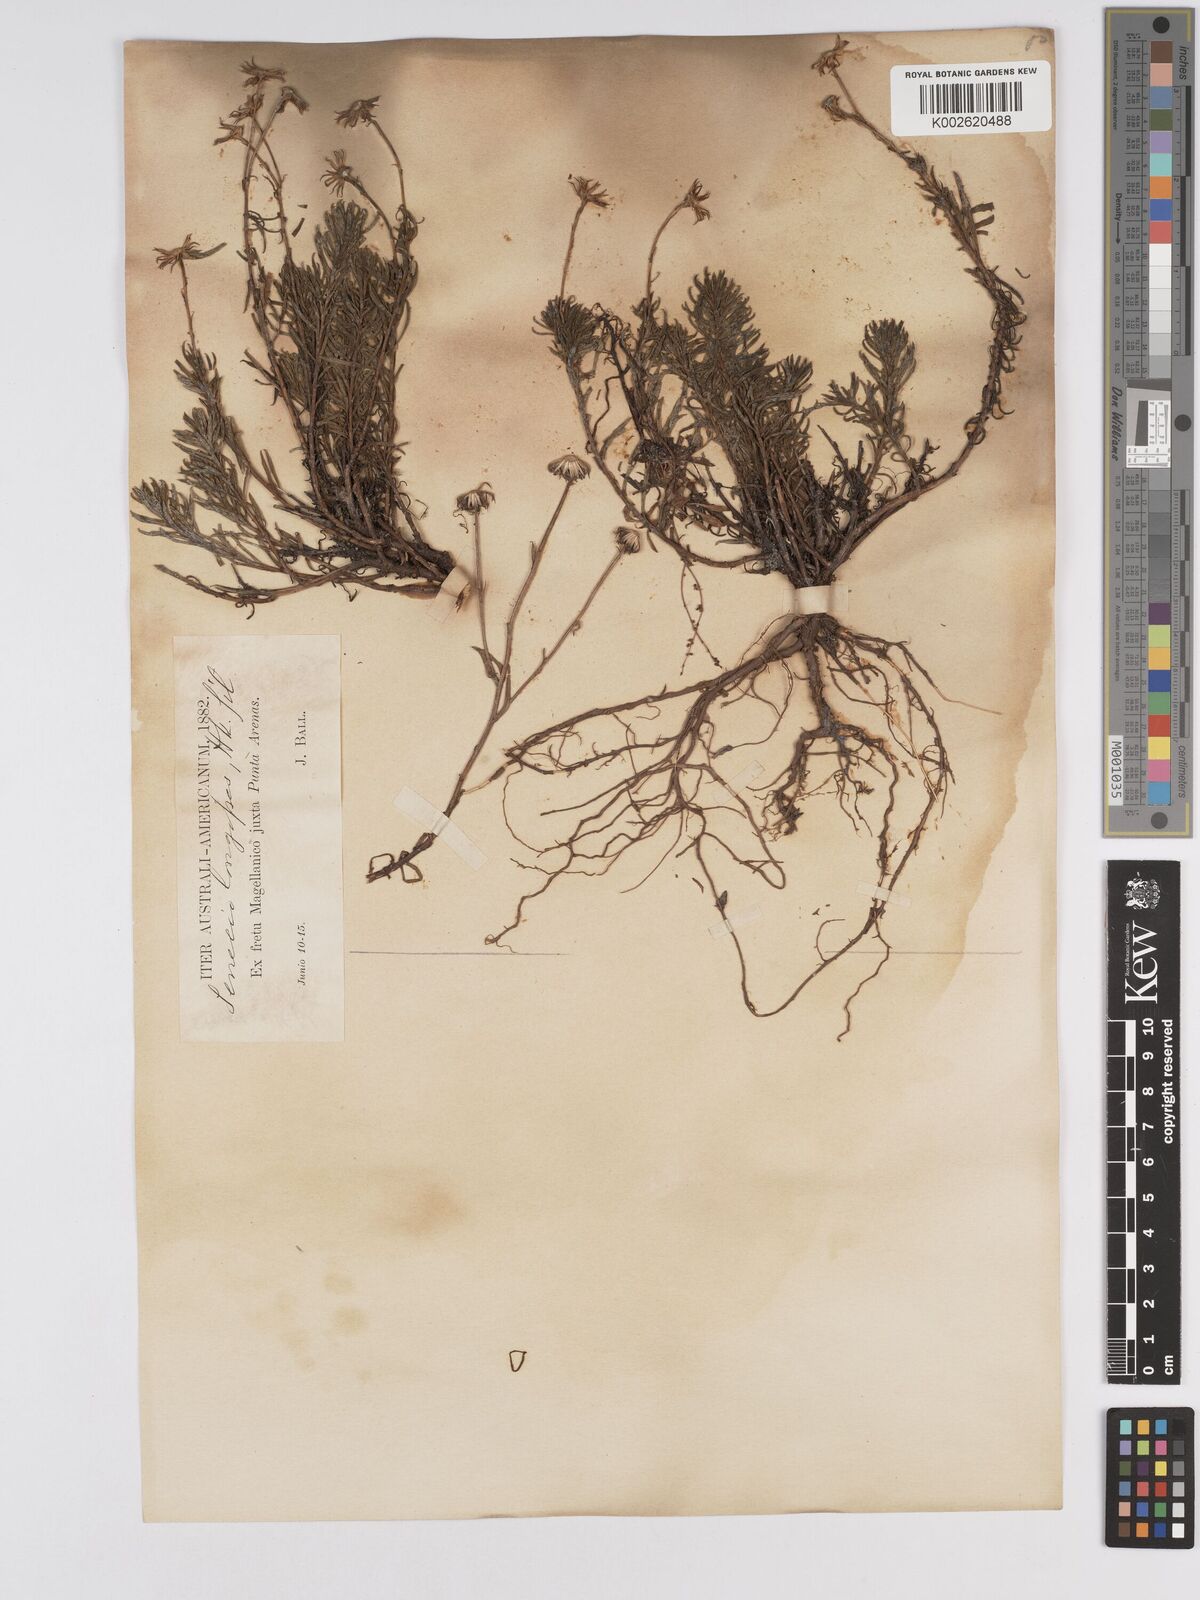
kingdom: Plantae
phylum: Tracheophyta
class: Magnoliopsida
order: Asterales
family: Asteraceae
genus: Senecio
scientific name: Senecio tricuspidatus
